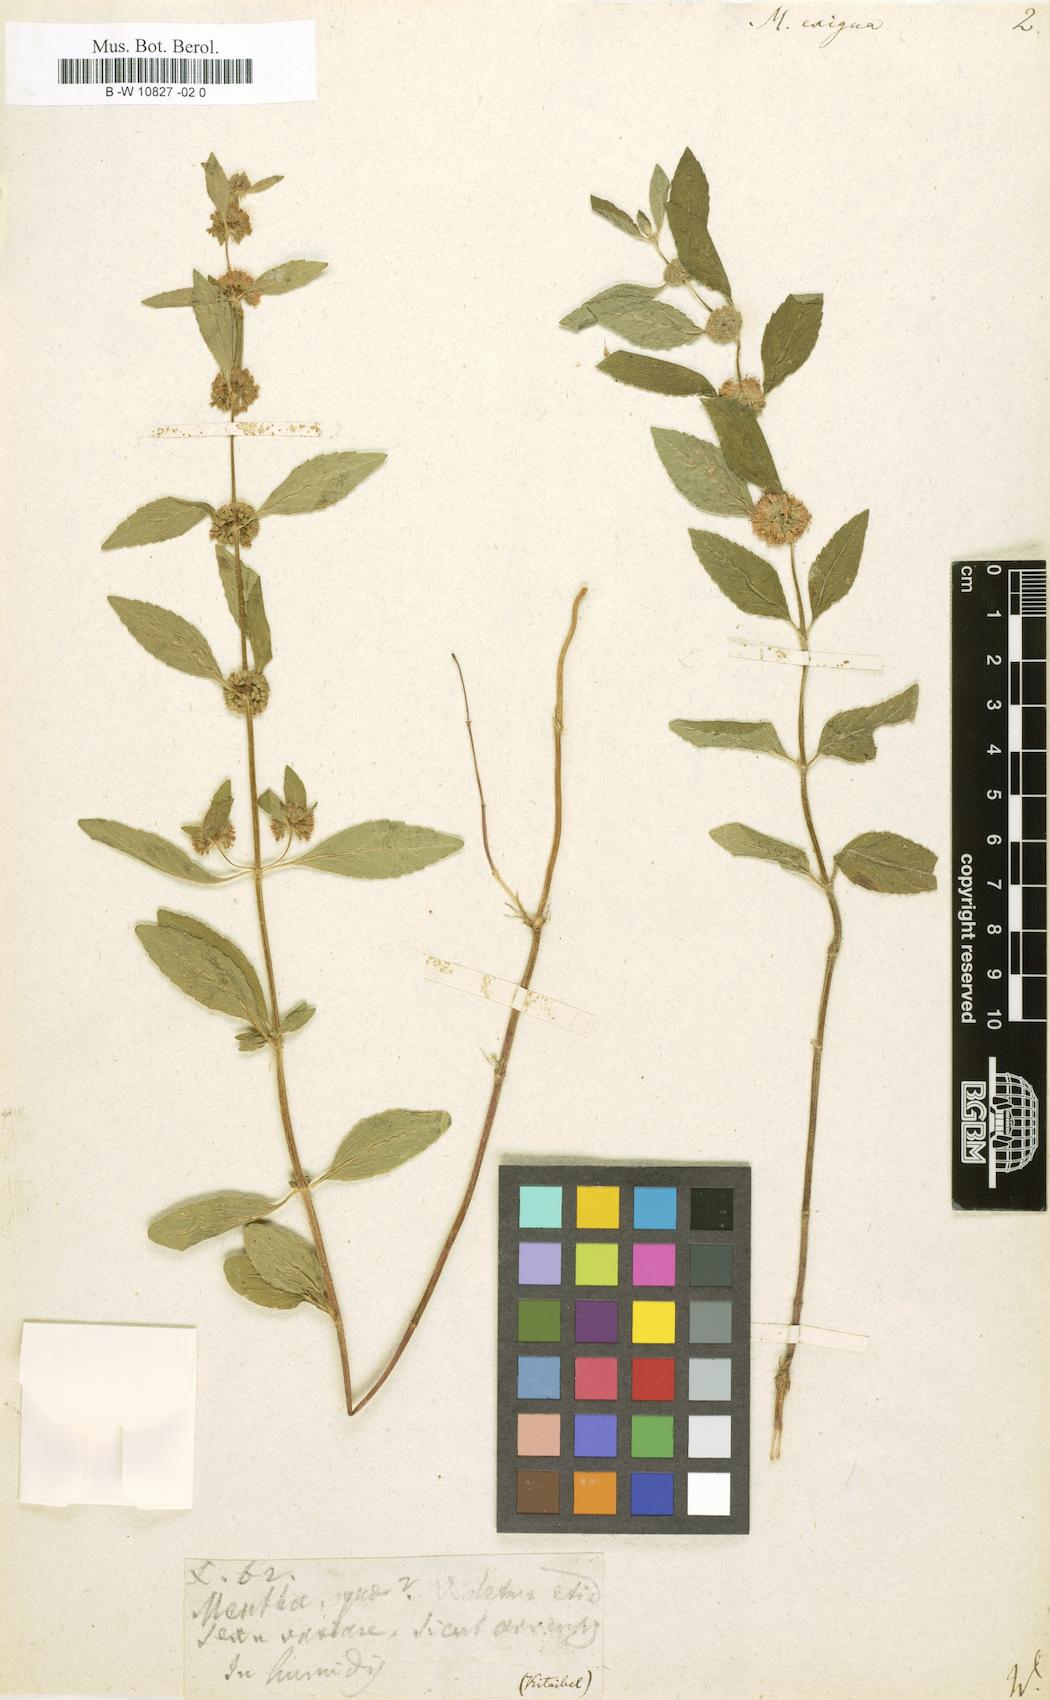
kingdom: Plantae
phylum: Tracheophyta
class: Magnoliopsida
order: Lamiales
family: Lamiaceae
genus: Mentha
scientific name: Mentha
